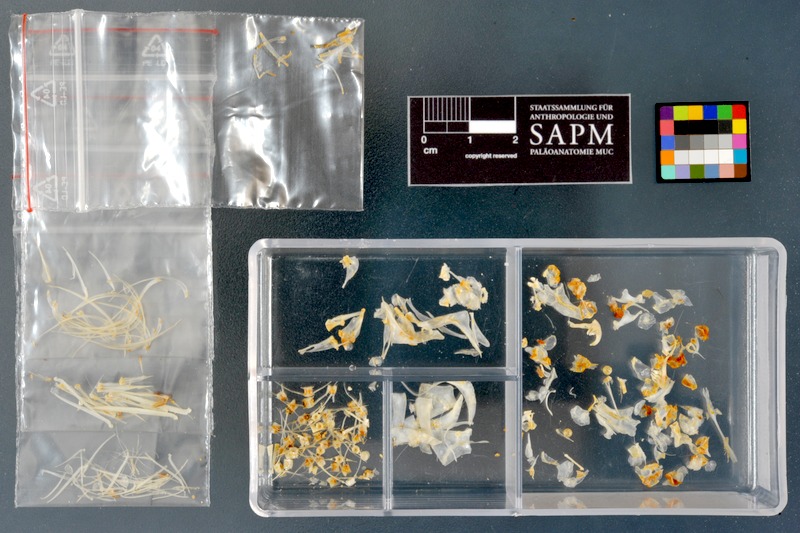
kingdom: Animalia
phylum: Chordata
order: Cypriniformes
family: Cyprinidae
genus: Acanthobrama
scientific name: Acanthobrama centisquama
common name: Long-spine bream
